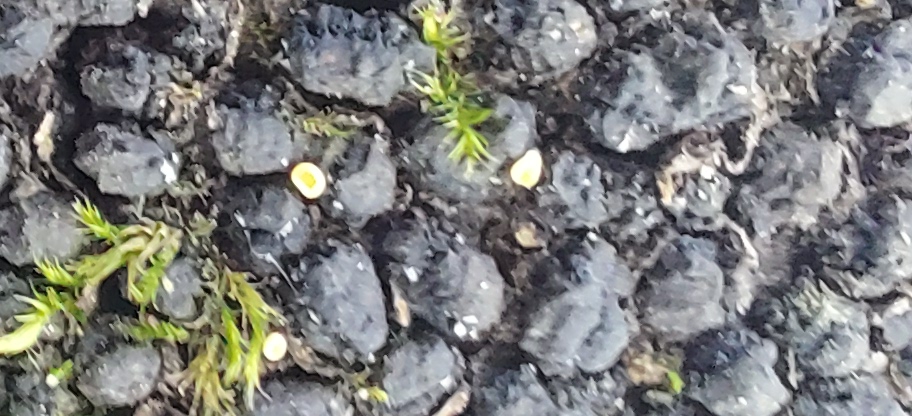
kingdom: Fungi
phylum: Ascomycota
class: Leotiomycetes
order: Helotiales
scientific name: Helotiales
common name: stilkskiveordenen
